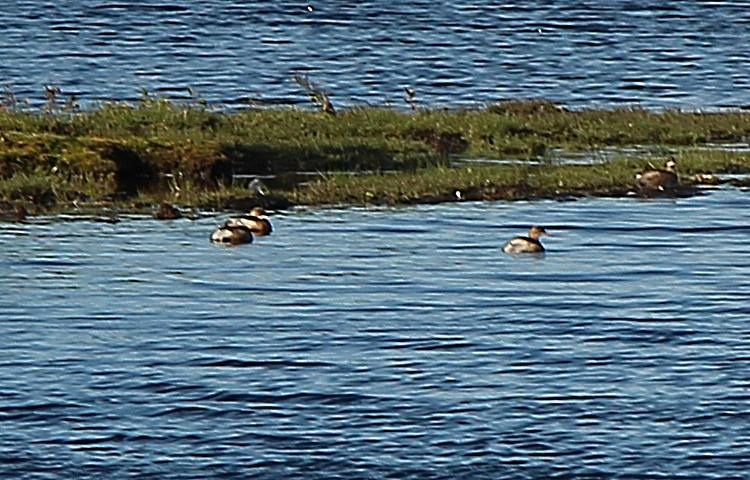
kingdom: Animalia
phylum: Chordata
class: Aves
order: Podicipediformes
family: Podicipedidae
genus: Tachybaptus
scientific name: Tachybaptus ruficollis
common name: Lille lappedykker
